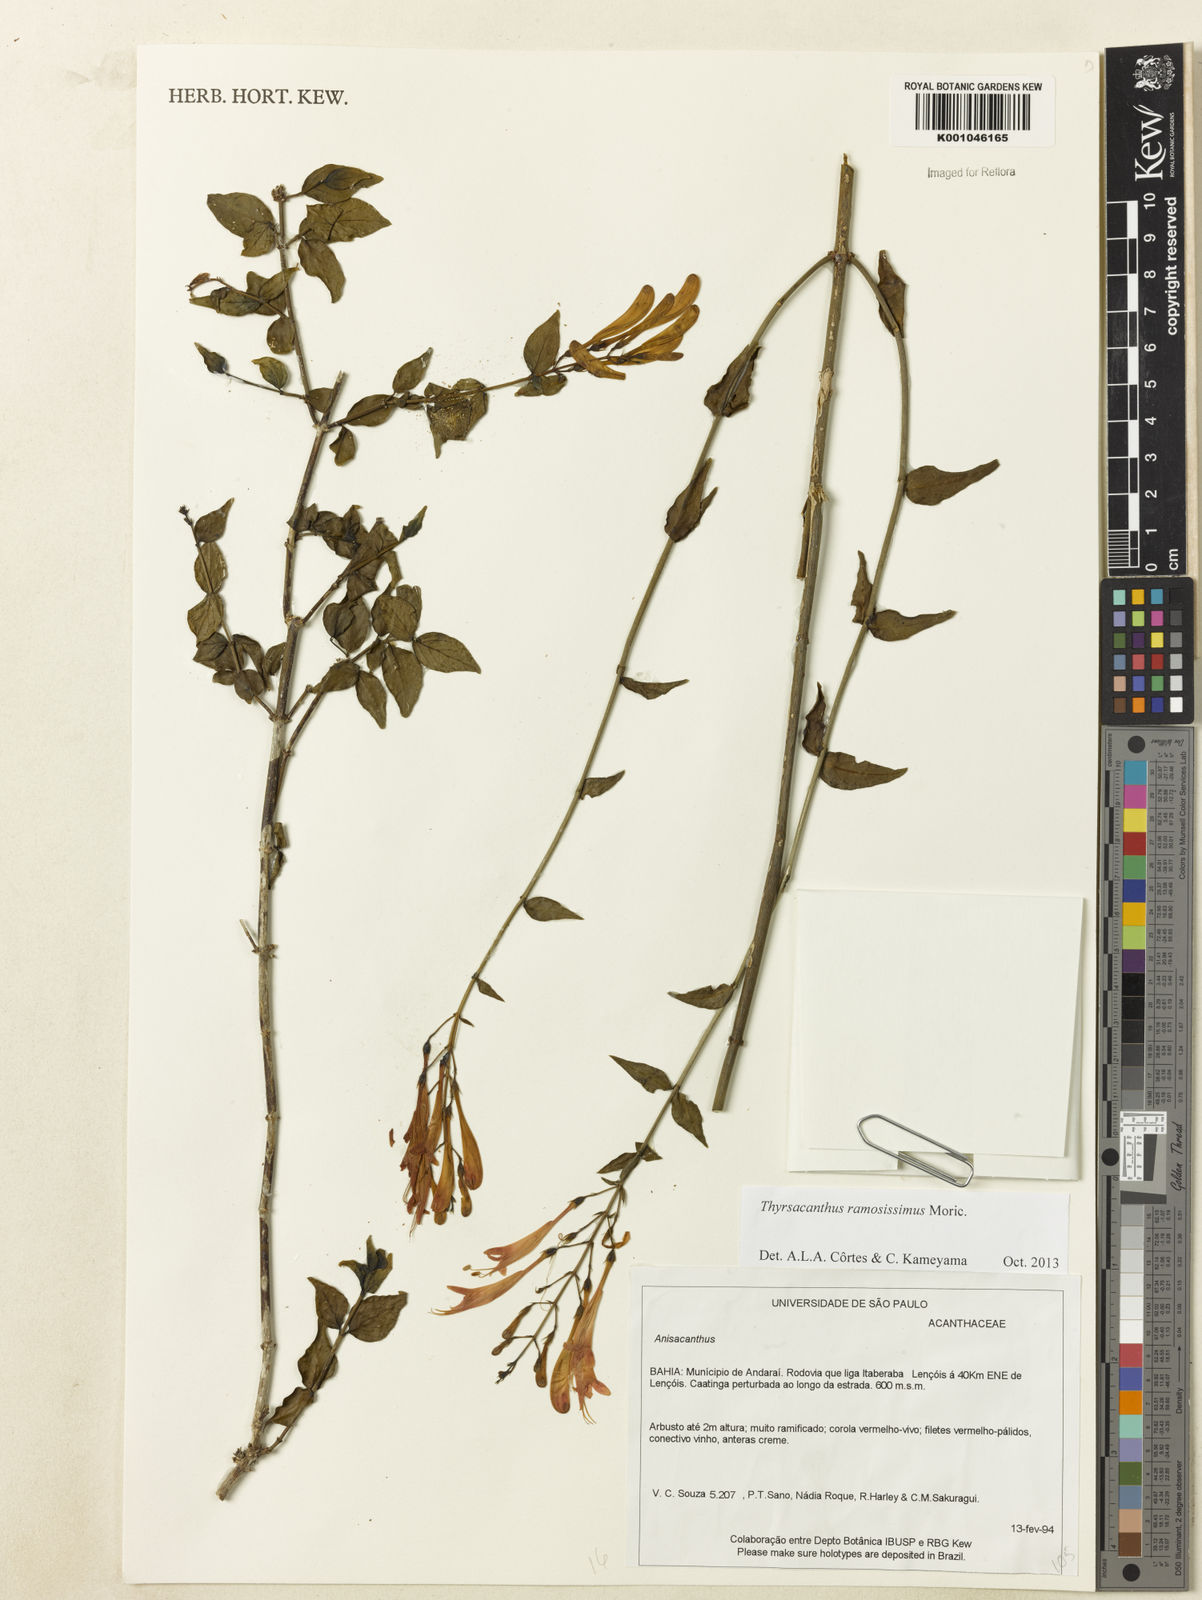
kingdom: Plantae
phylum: Tracheophyta
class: Magnoliopsida
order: Lamiales
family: Acanthaceae
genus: Thyrsacanthus
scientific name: Thyrsacanthus ramosissimus
